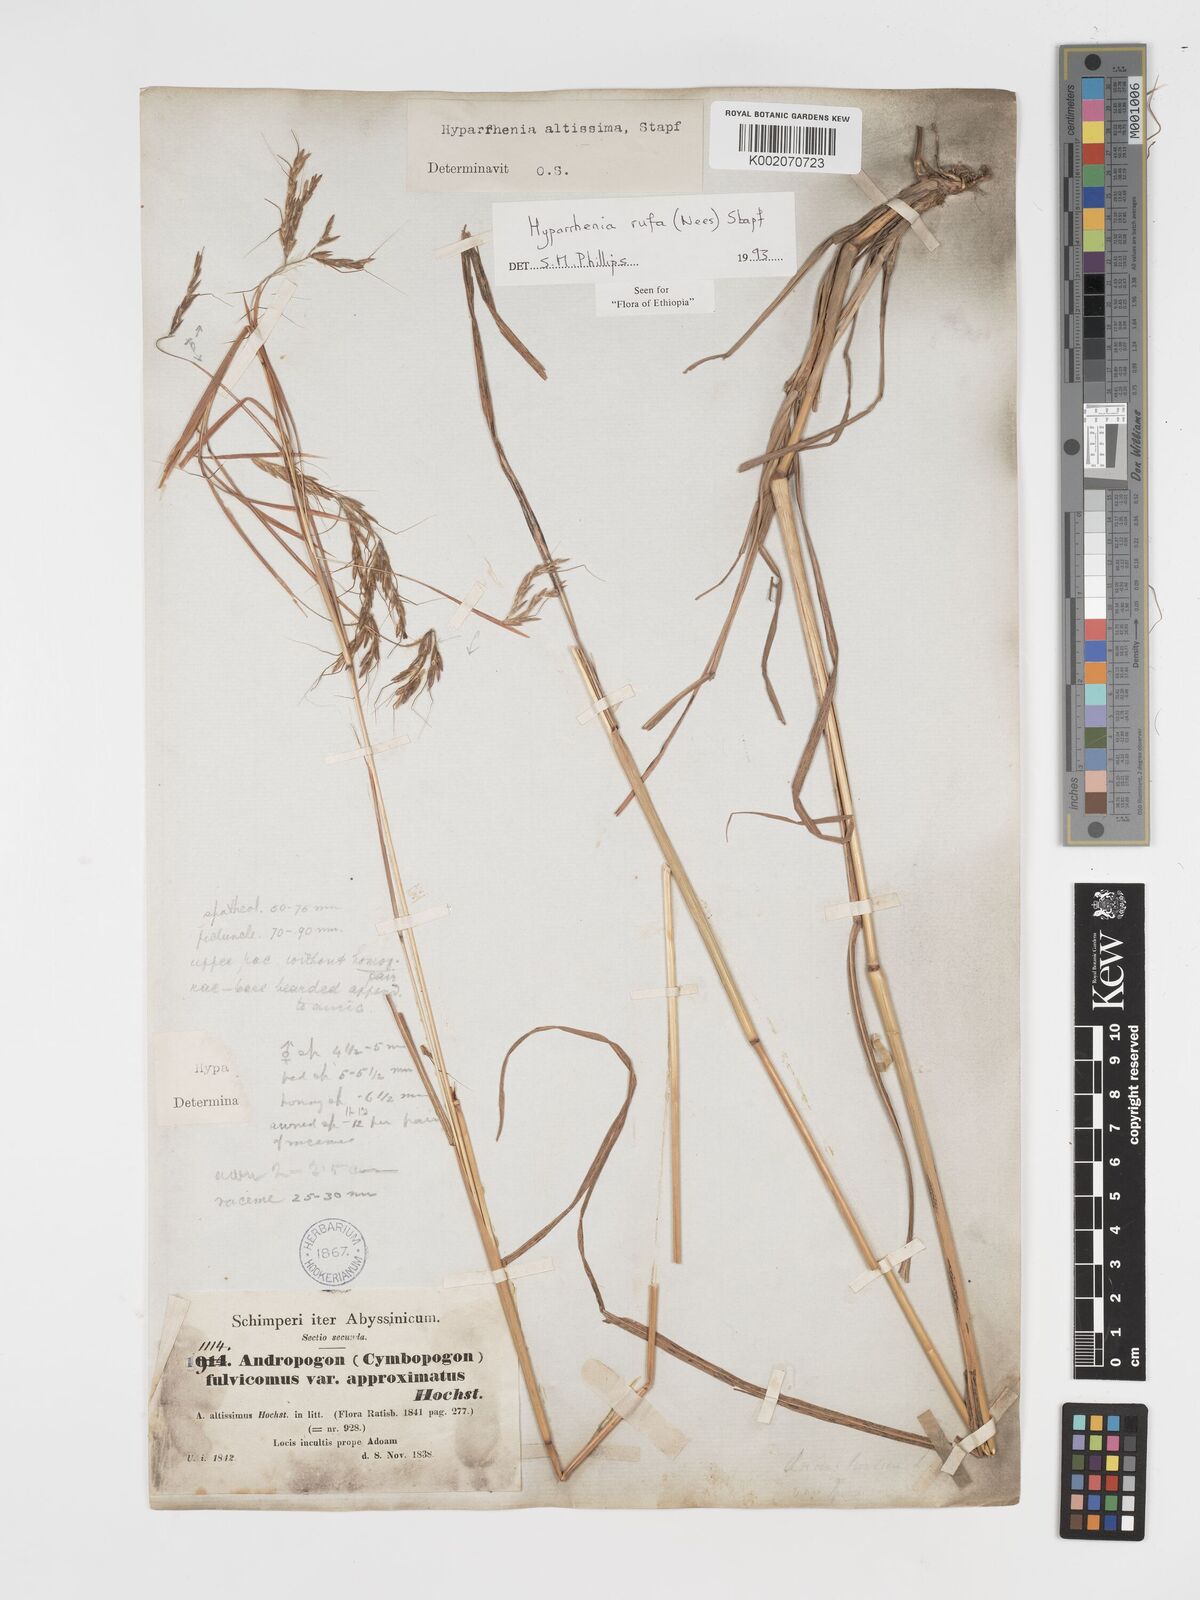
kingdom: Plantae
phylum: Tracheophyta
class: Liliopsida
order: Poales
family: Poaceae
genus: Hyparrhenia
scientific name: Hyparrhenia rufa
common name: Jaraguagrass
